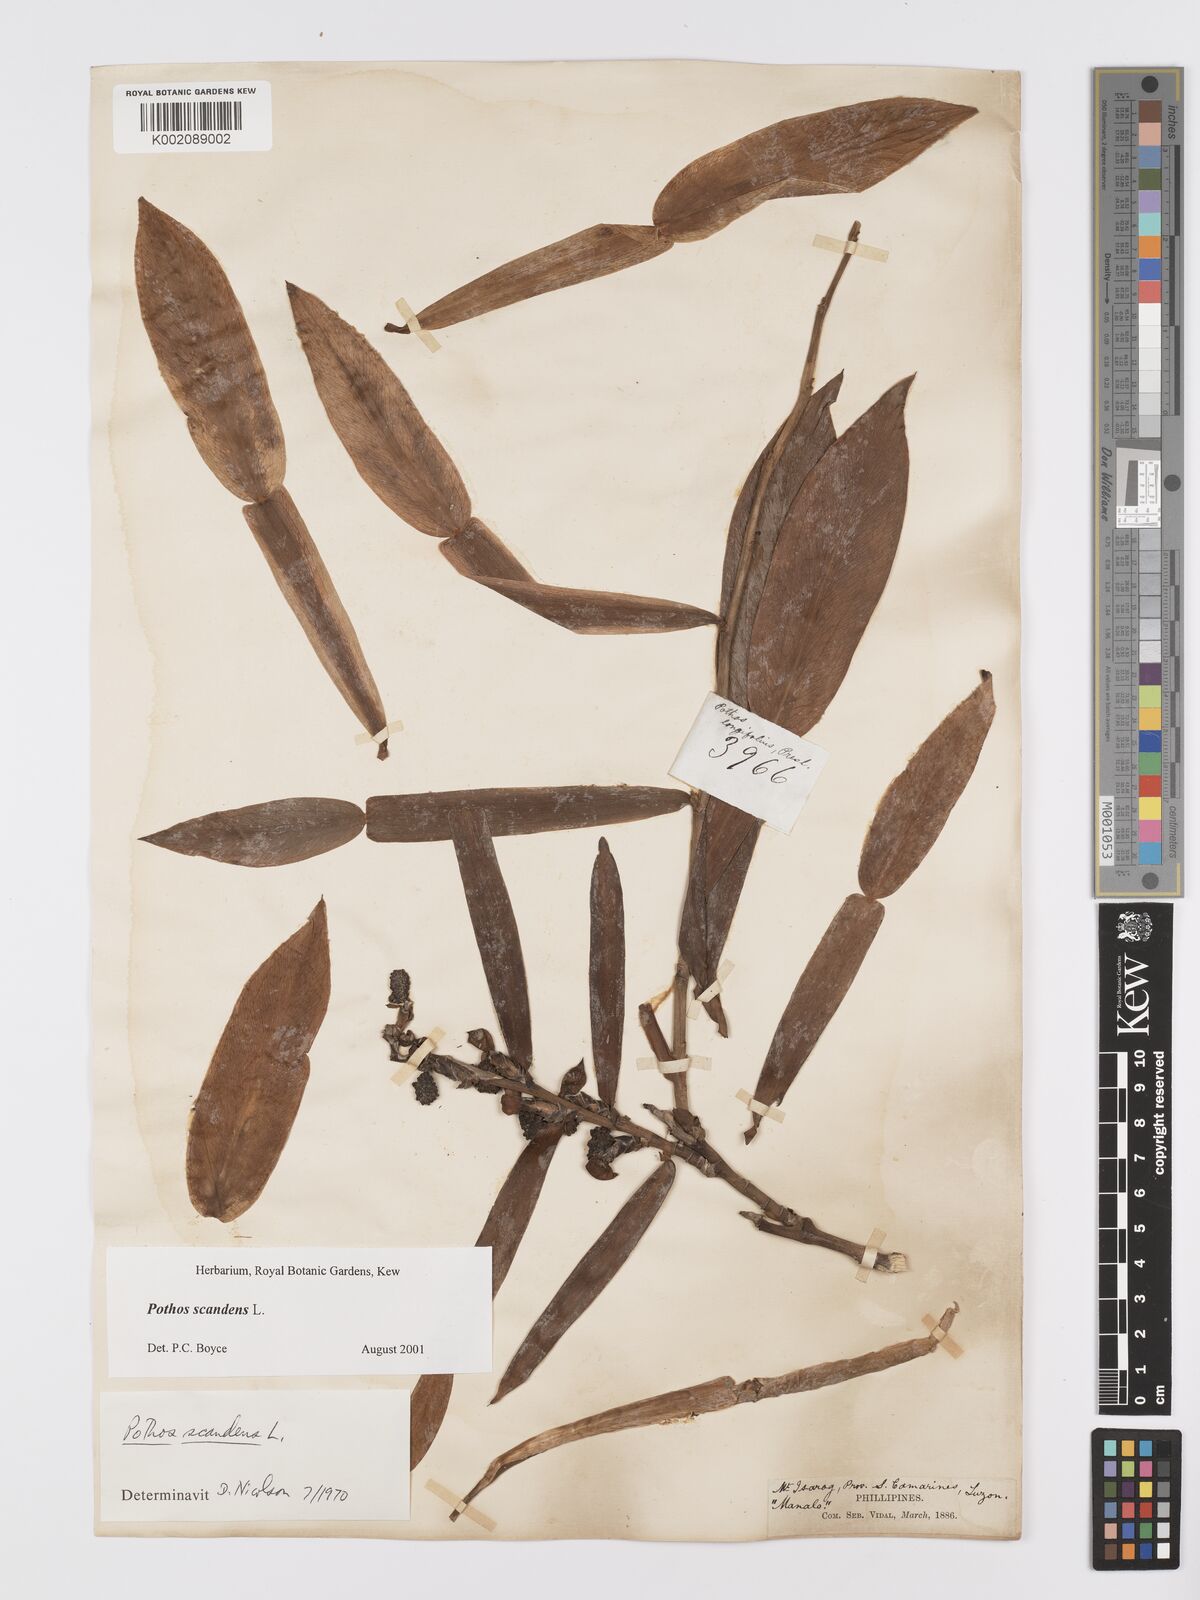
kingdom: Plantae
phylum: Tracheophyta
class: Liliopsida
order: Alismatales
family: Araceae
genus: Pothos
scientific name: Pothos scandens
